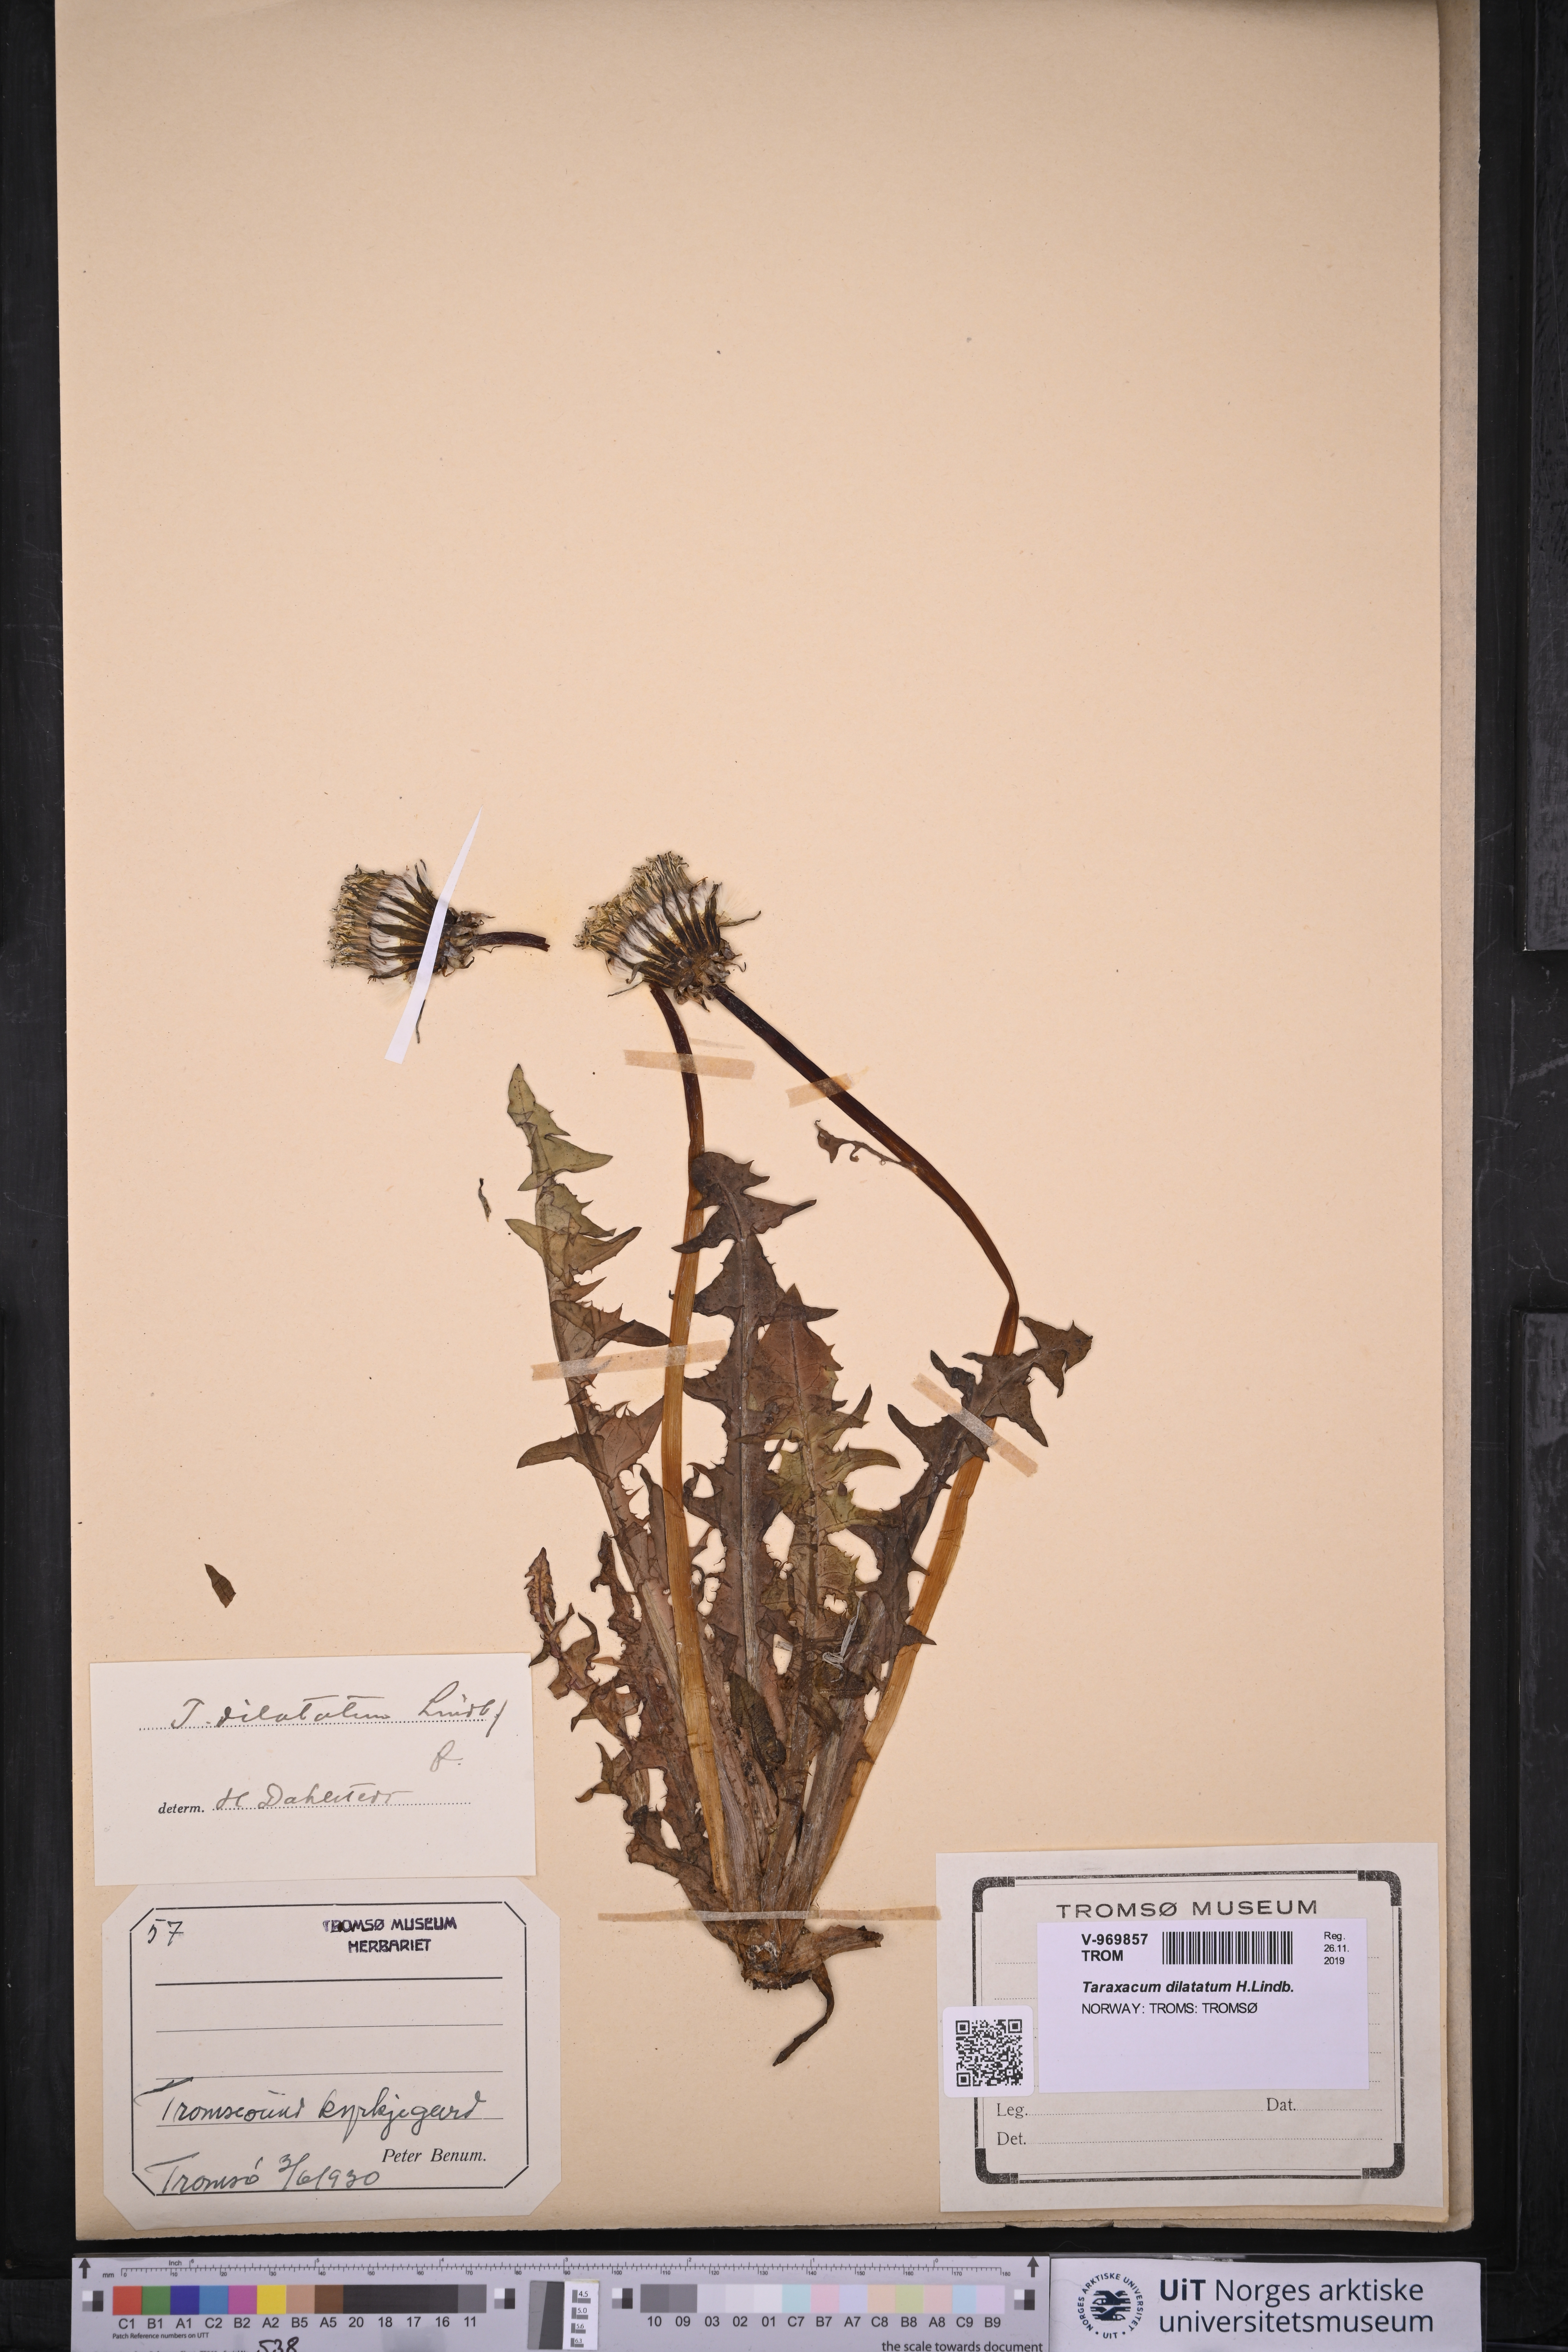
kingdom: Plantae
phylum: Tracheophyta
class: Magnoliopsida
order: Asterales
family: Asteraceae
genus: Taraxacum
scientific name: Taraxacum dilatatum
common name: Grassland dandelion
